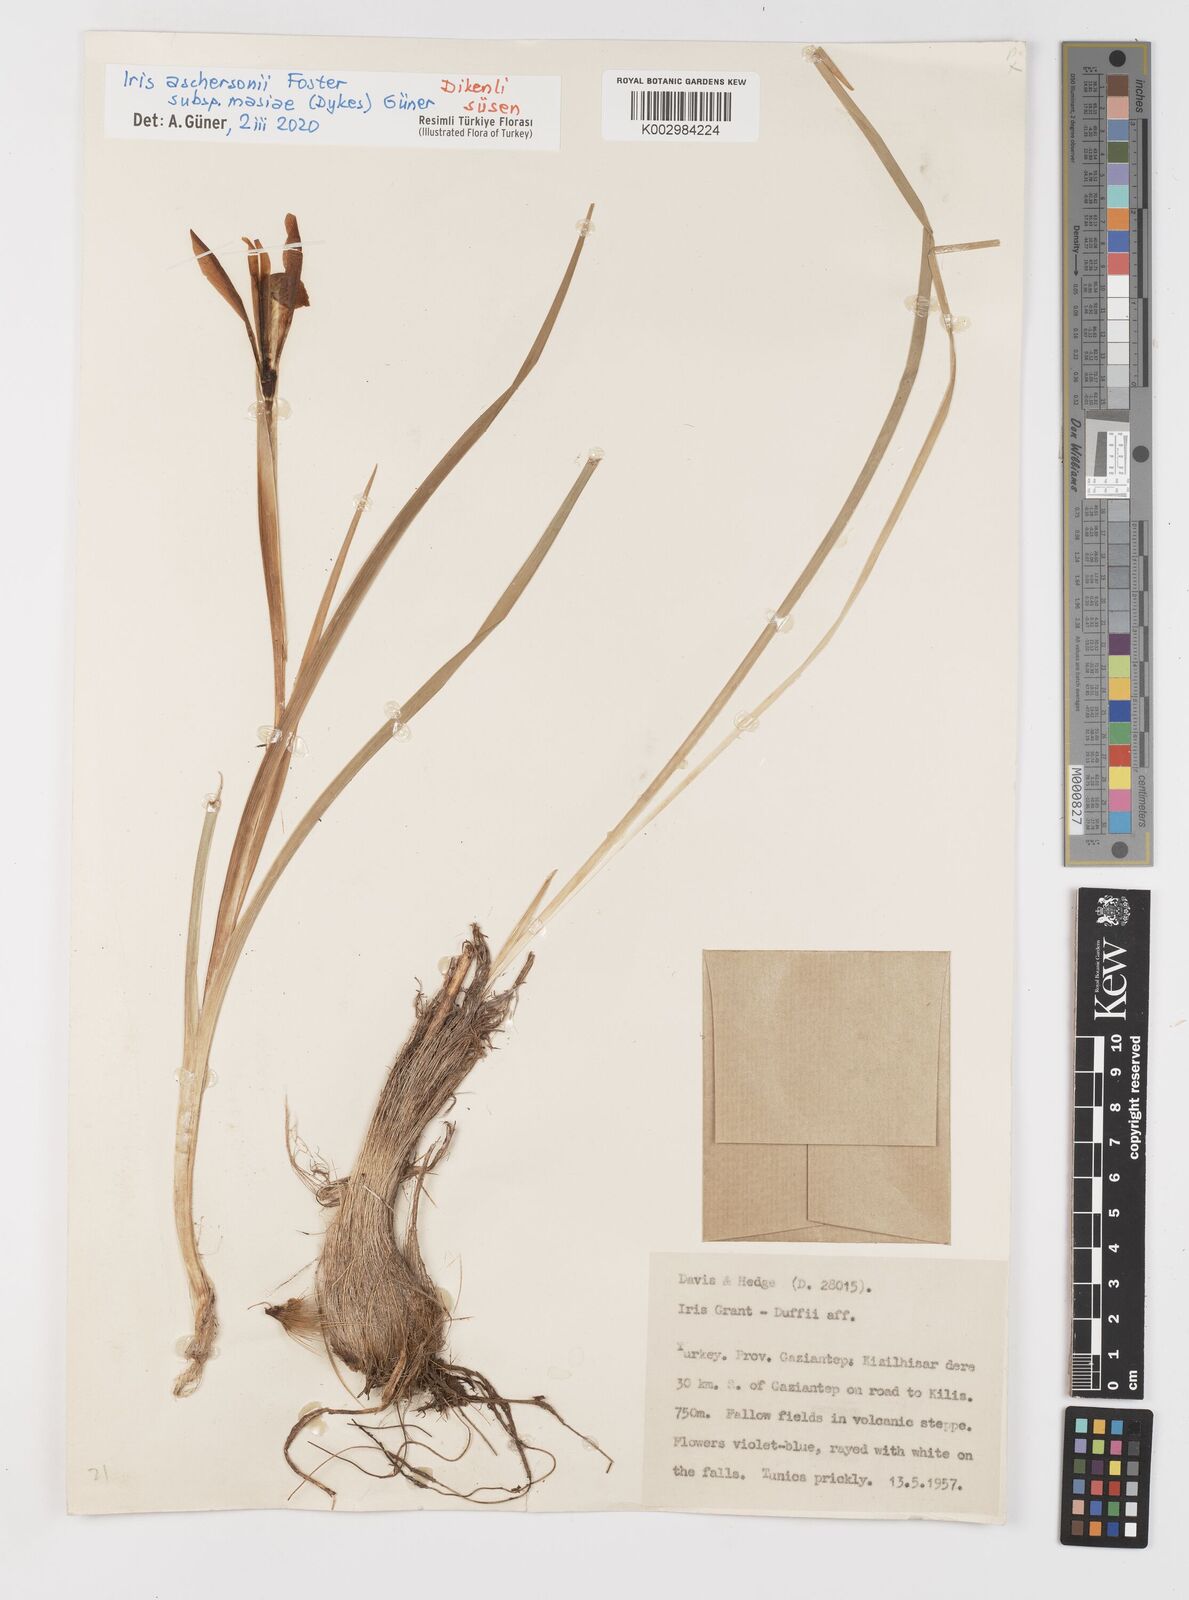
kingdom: Plantae
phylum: Tracheophyta
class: Liliopsida
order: Asparagales
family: Iridaceae
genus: Iris
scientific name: Iris grant-duffii
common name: Grant duff's iris
